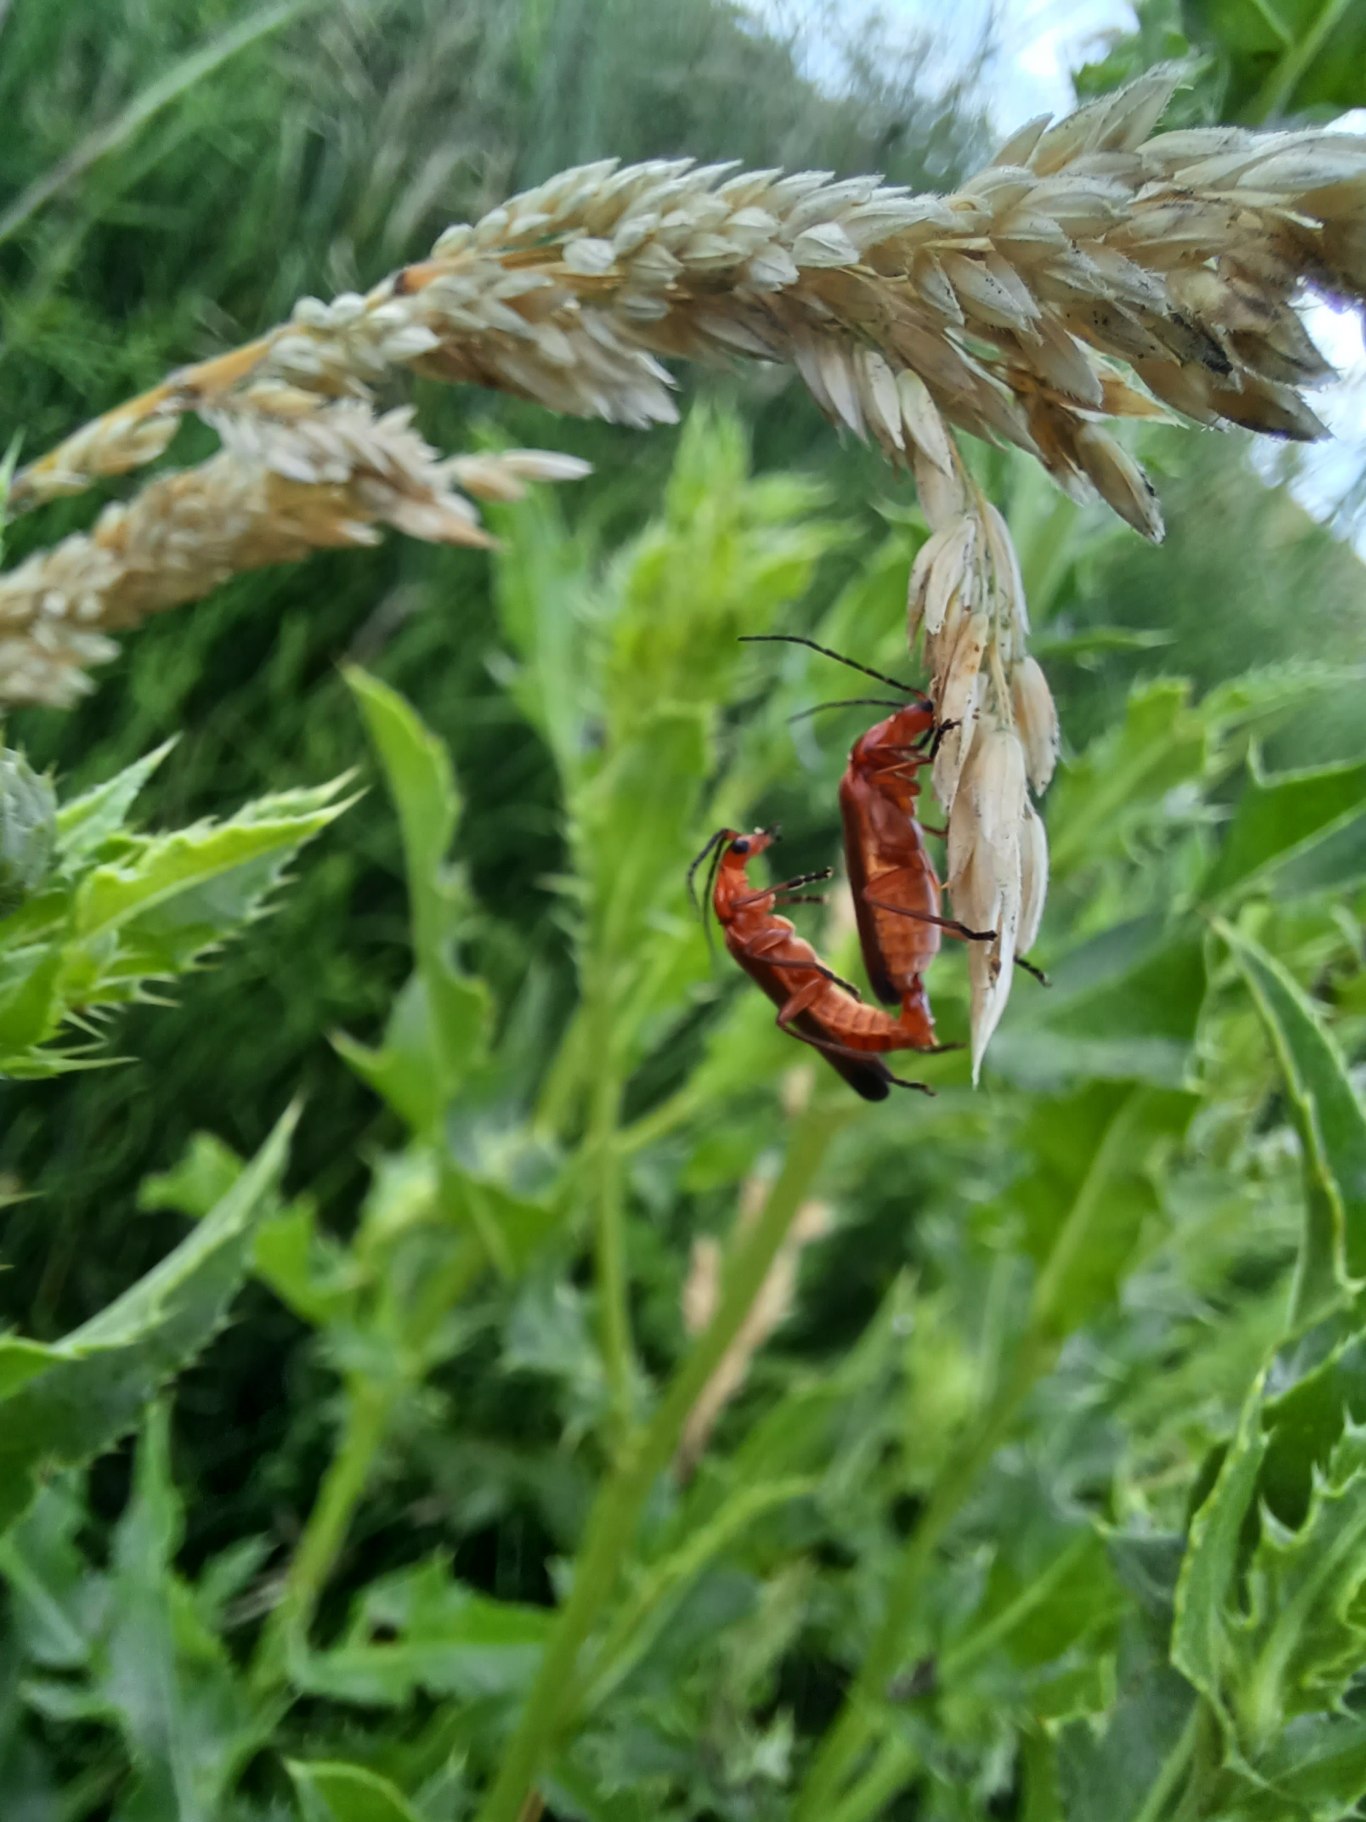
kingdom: Animalia
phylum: Arthropoda
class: Insecta
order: Coleoptera
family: Cantharidae
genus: Rhagonycha
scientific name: Rhagonycha fulva
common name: Præstebille
